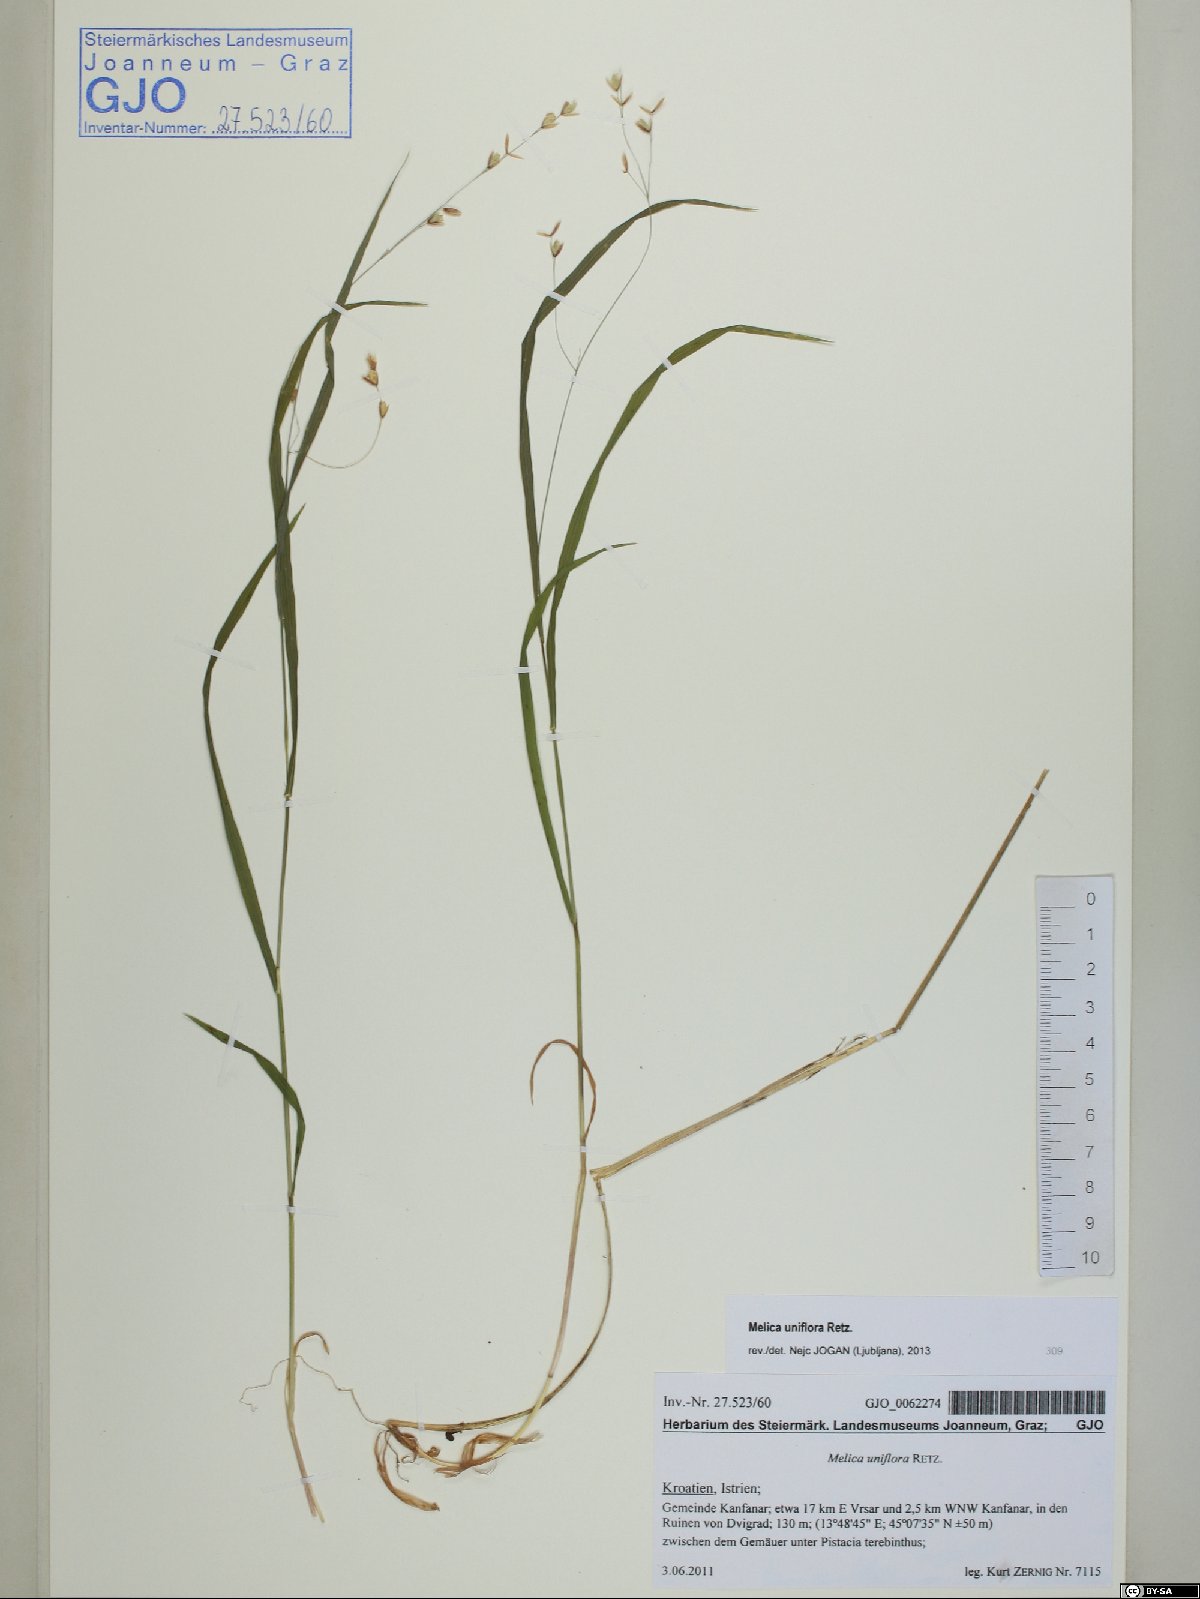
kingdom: Plantae
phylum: Tracheophyta
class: Liliopsida
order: Poales
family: Poaceae
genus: Melica
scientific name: Melica uniflora
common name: Wood melick
